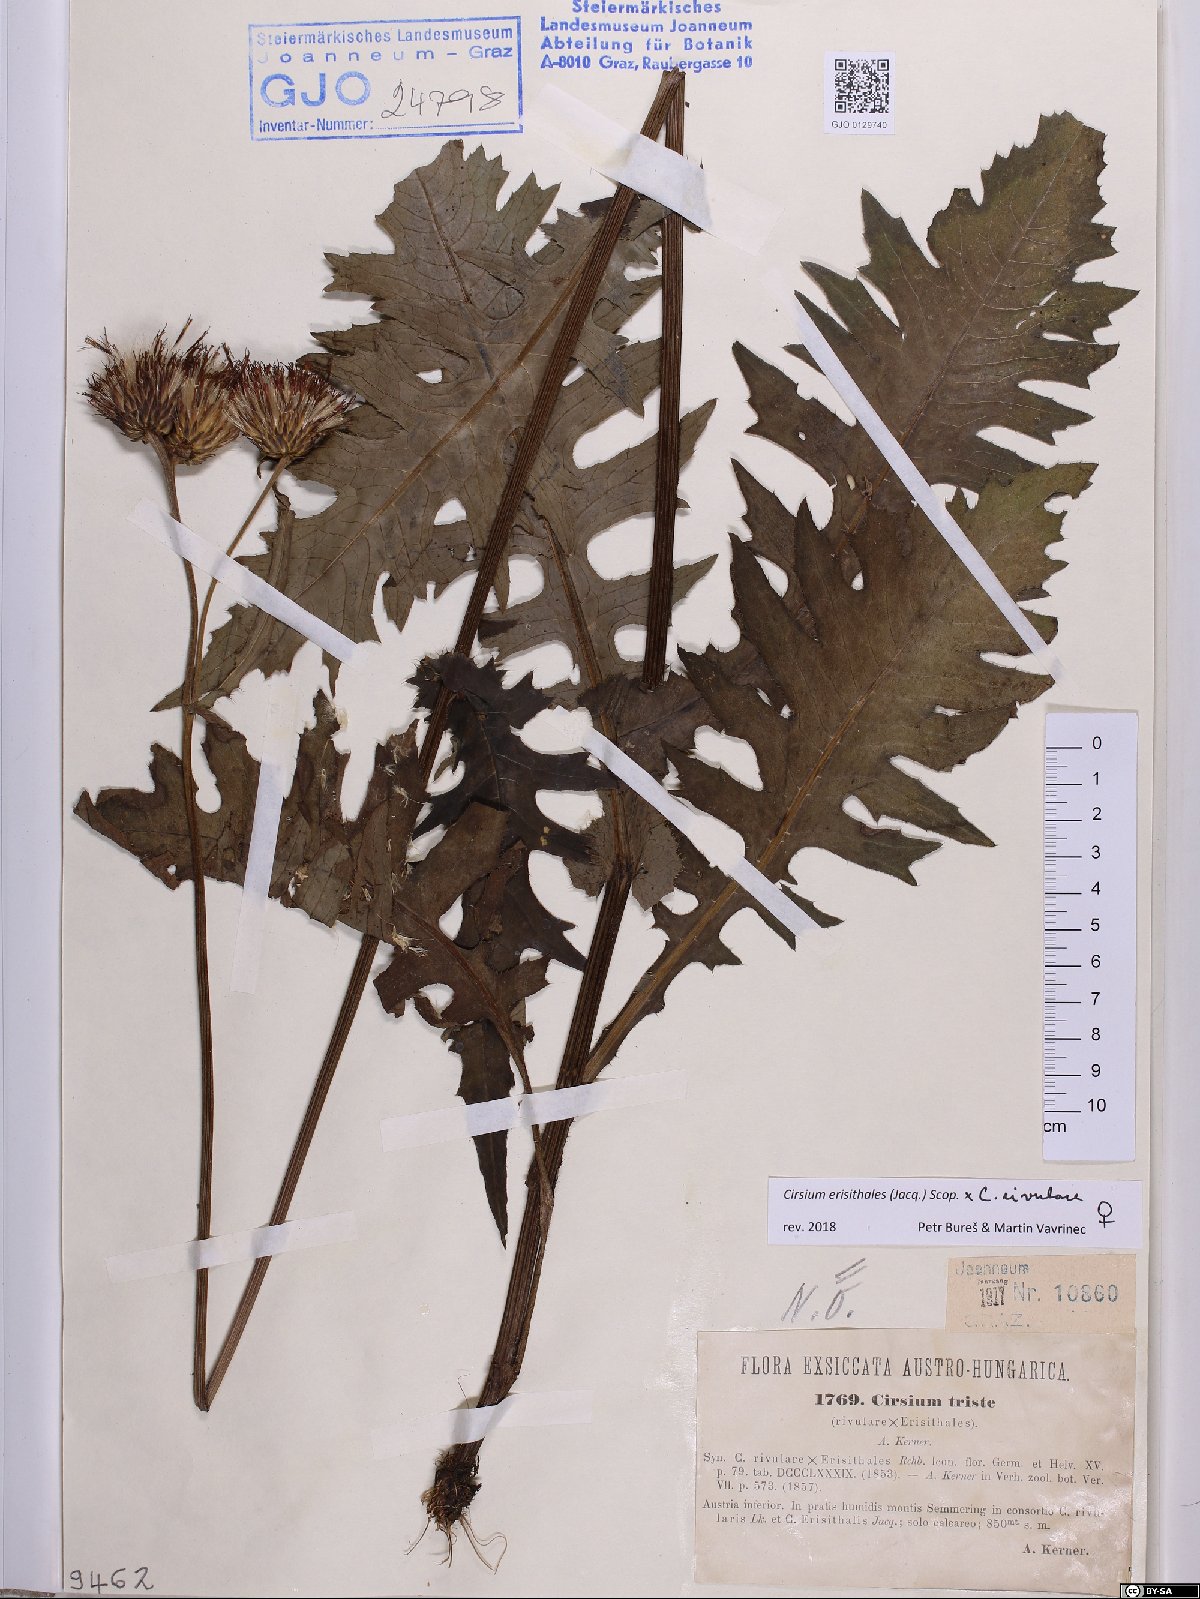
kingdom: Plantae
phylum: Tracheophyta
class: Magnoliopsida
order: Asterales
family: Asteraceae
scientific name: Asteraceae
